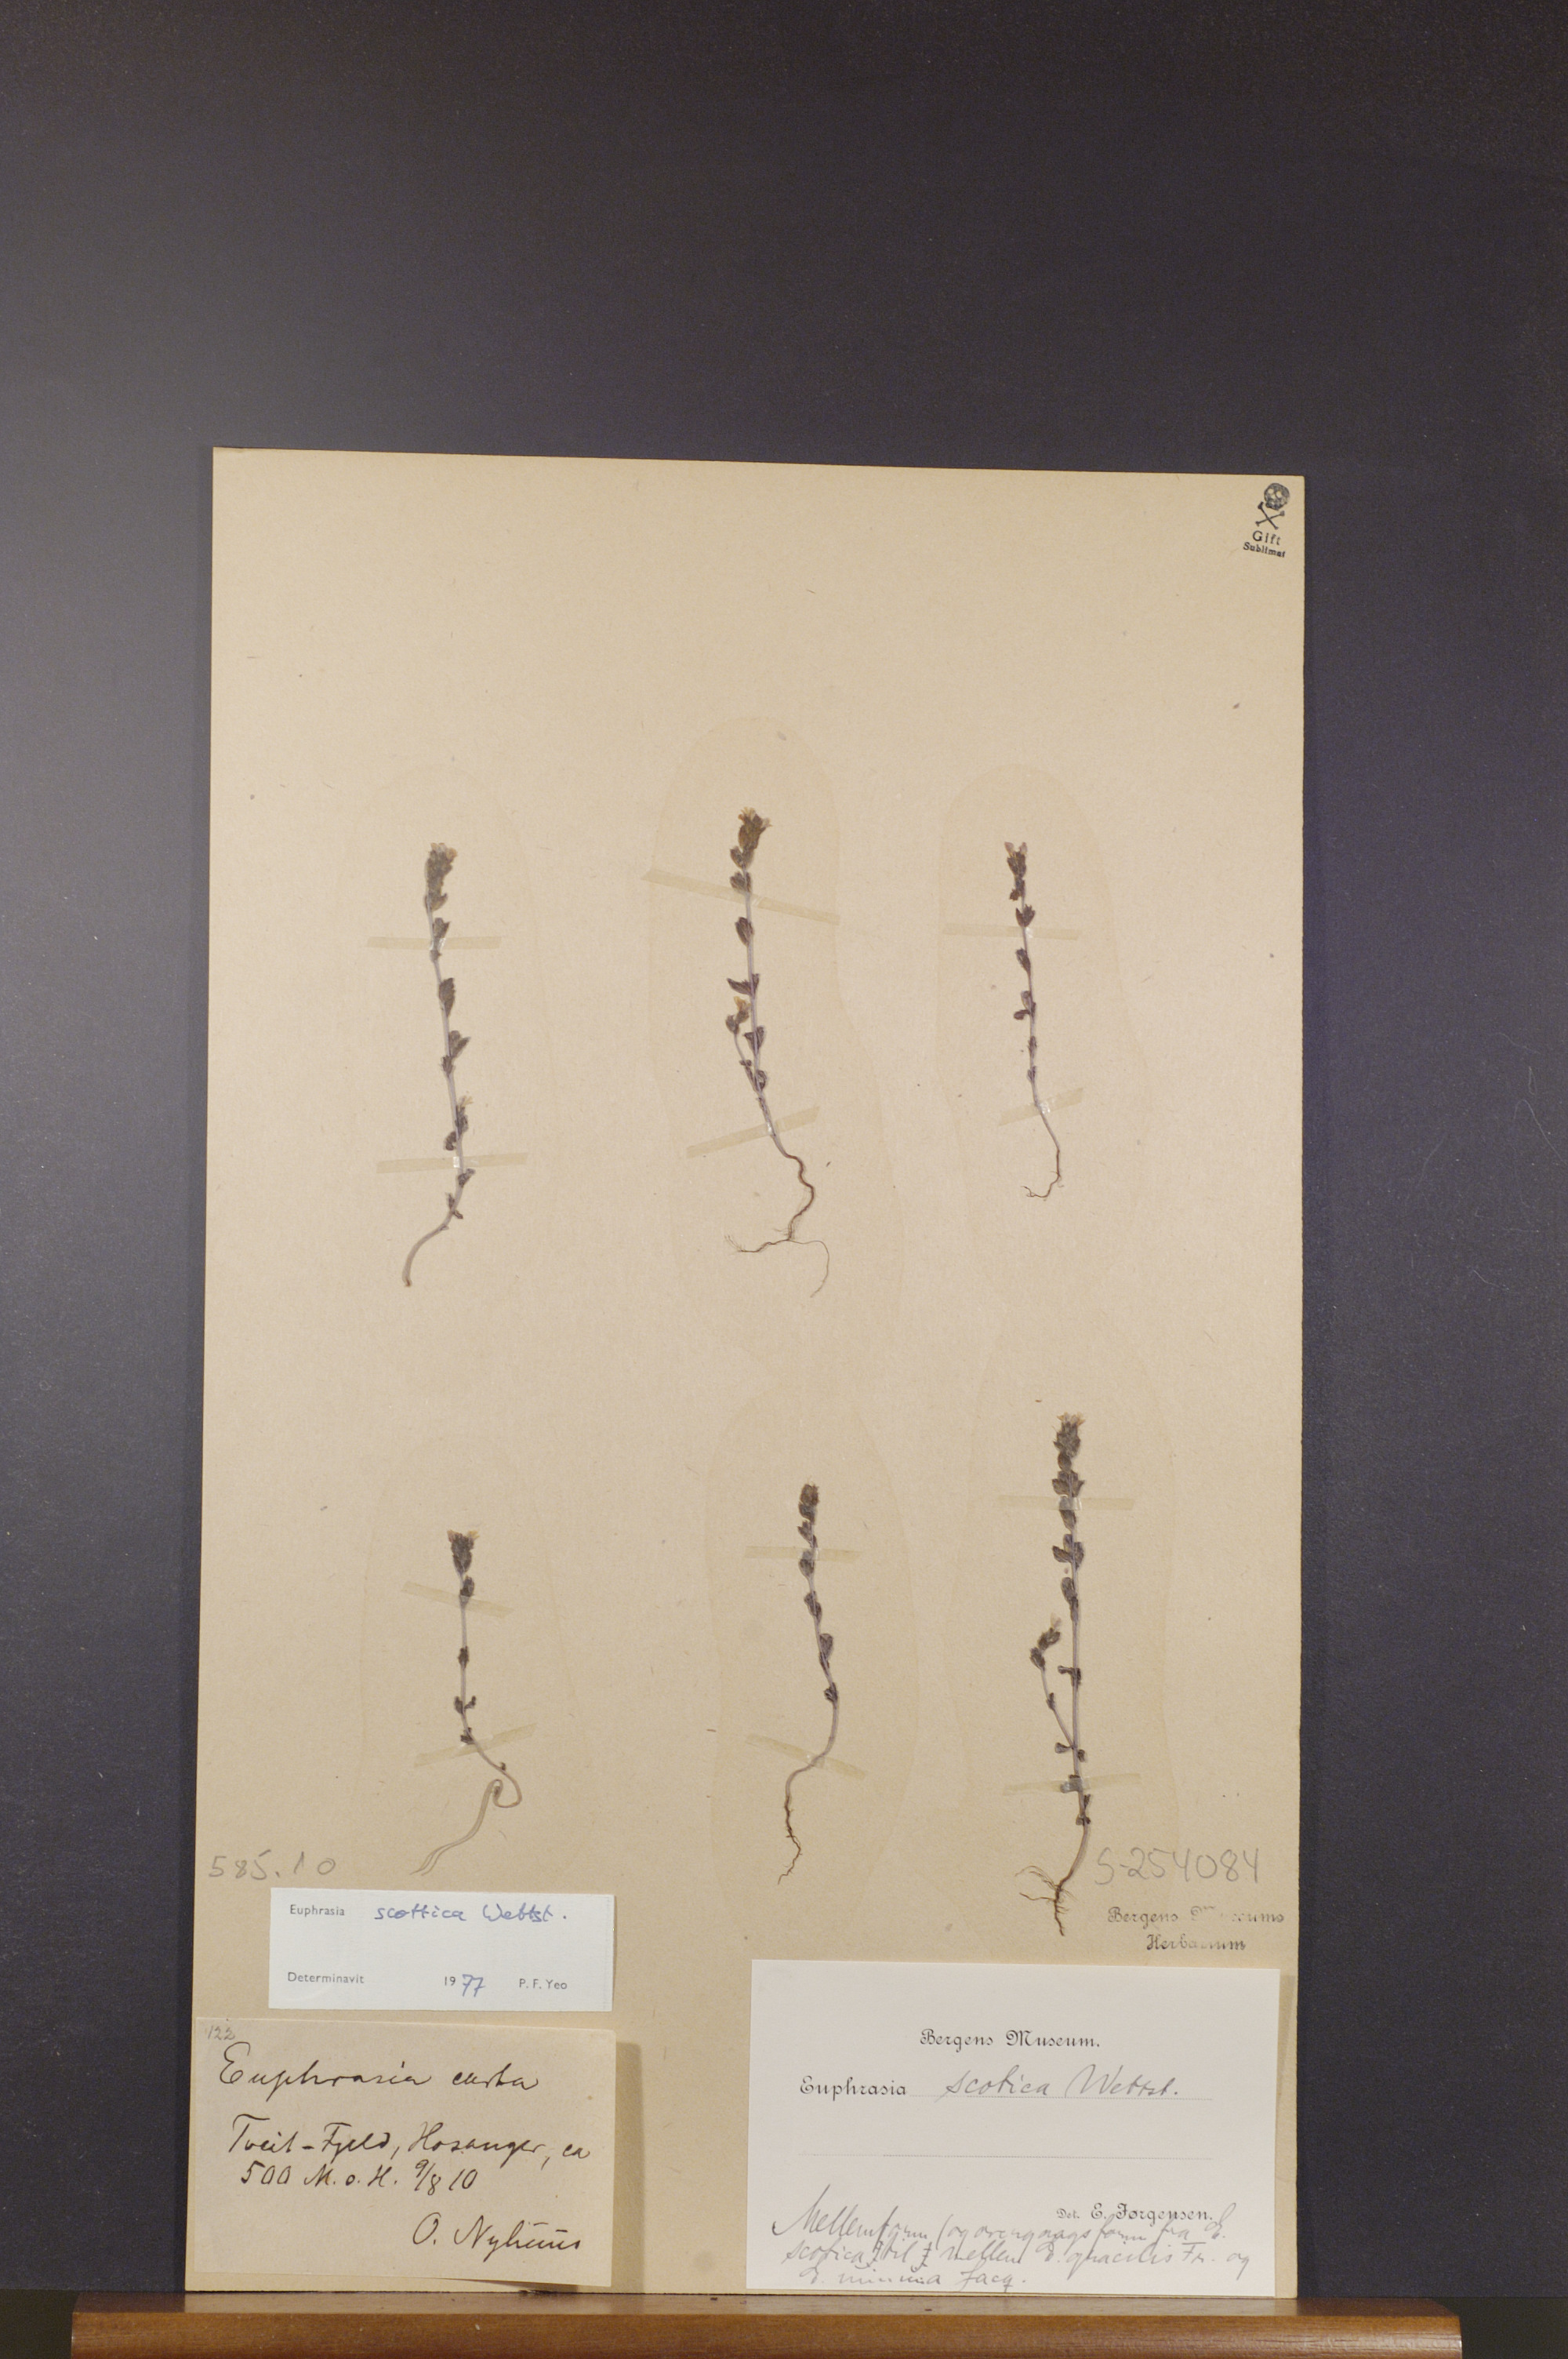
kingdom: Plantae
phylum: Tracheophyta
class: Magnoliopsida
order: Lamiales
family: Orobanchaceae
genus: Euphrasia
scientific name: Euphrasia scottica
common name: Slender scottish eyebright
